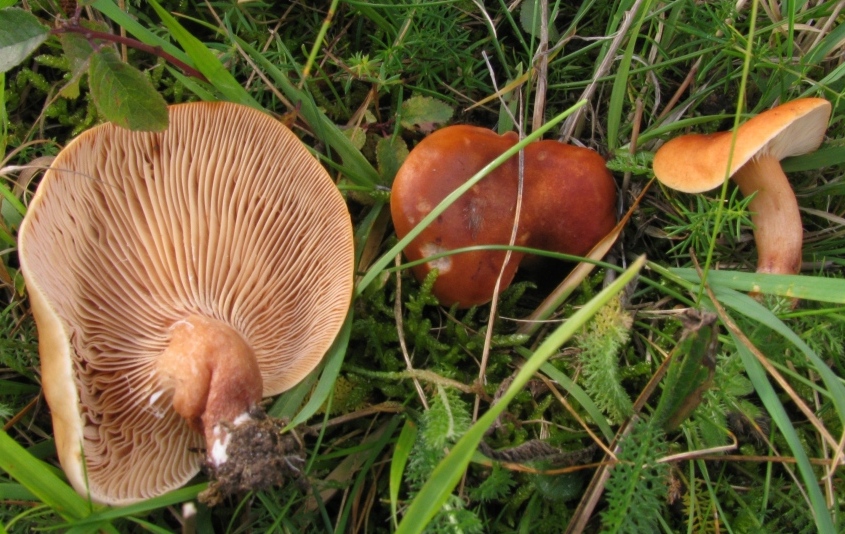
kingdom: Fungi
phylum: Basidiomycota
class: Agaricomycetes
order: Russulales
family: Russulaceae
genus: Lactarius
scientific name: Lactarius tabidus
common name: rynket mælkehat
